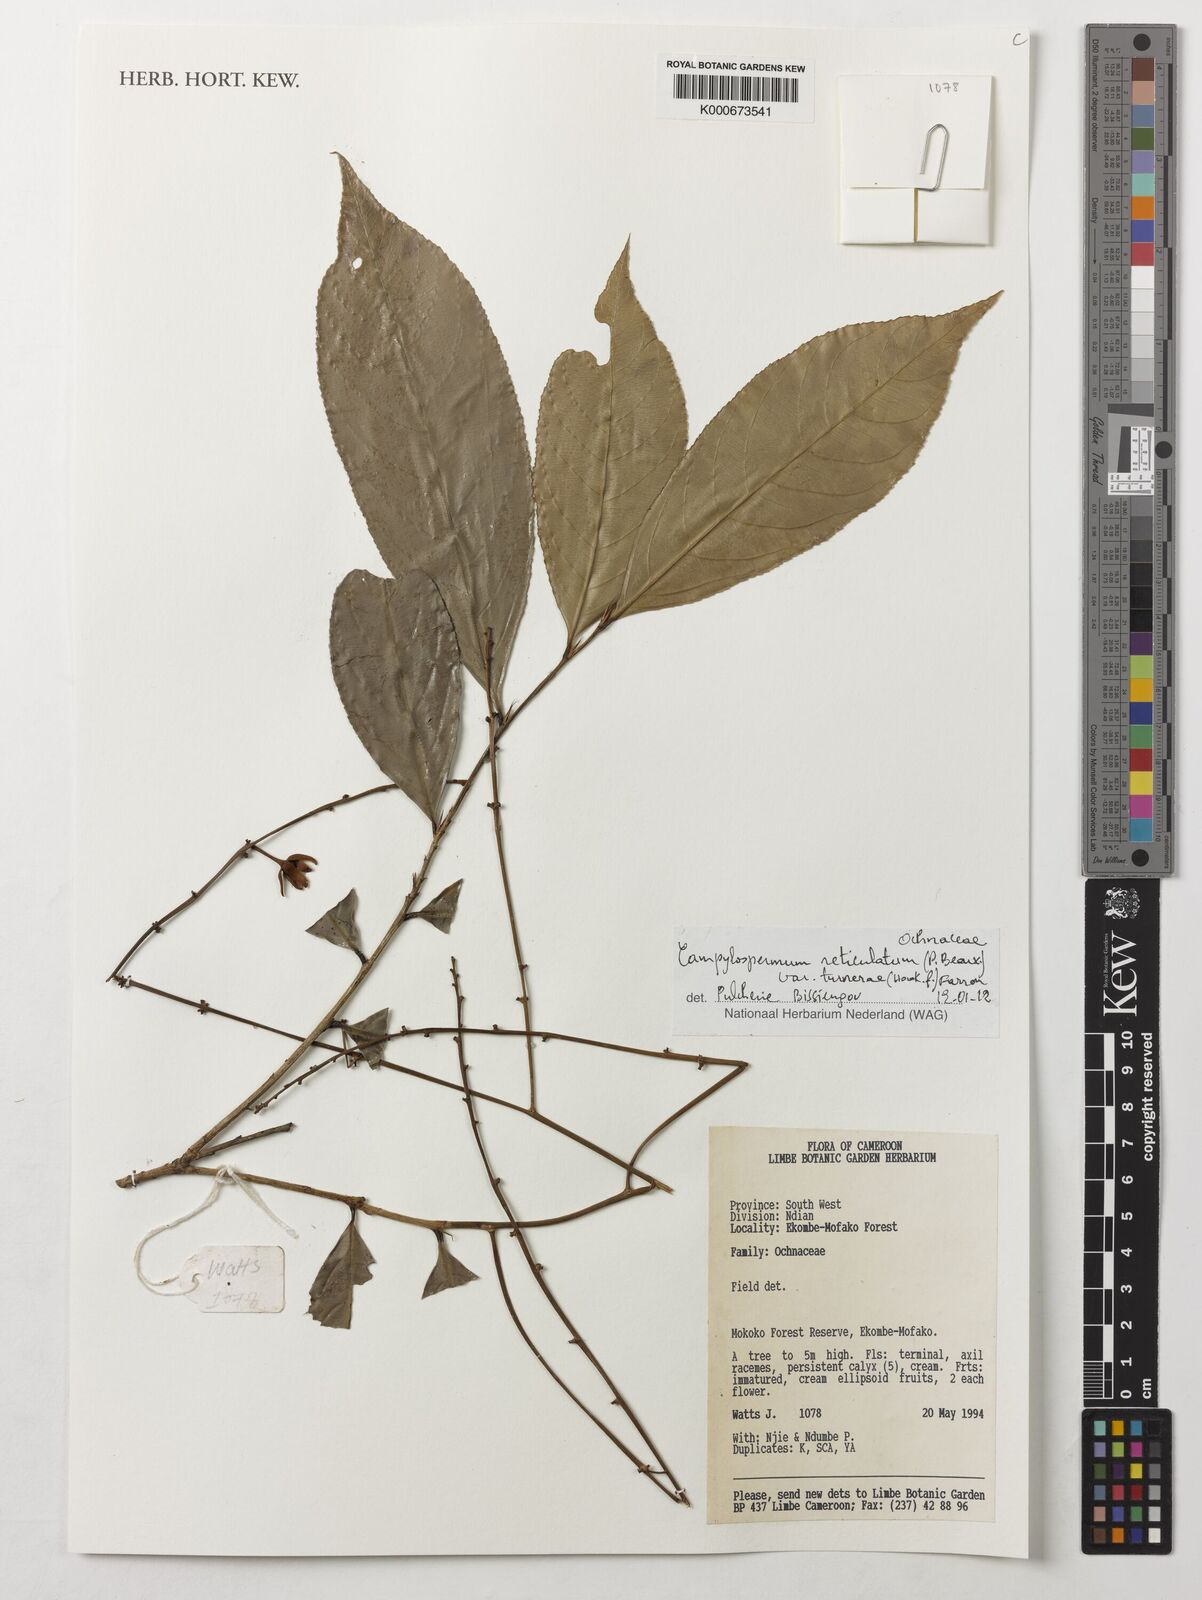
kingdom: Plantae
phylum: Tracheophyta
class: Magnoliopsida
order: Malpighiales
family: Ochnaceae
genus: Campylospermum
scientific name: Campylospermum reticulatum
